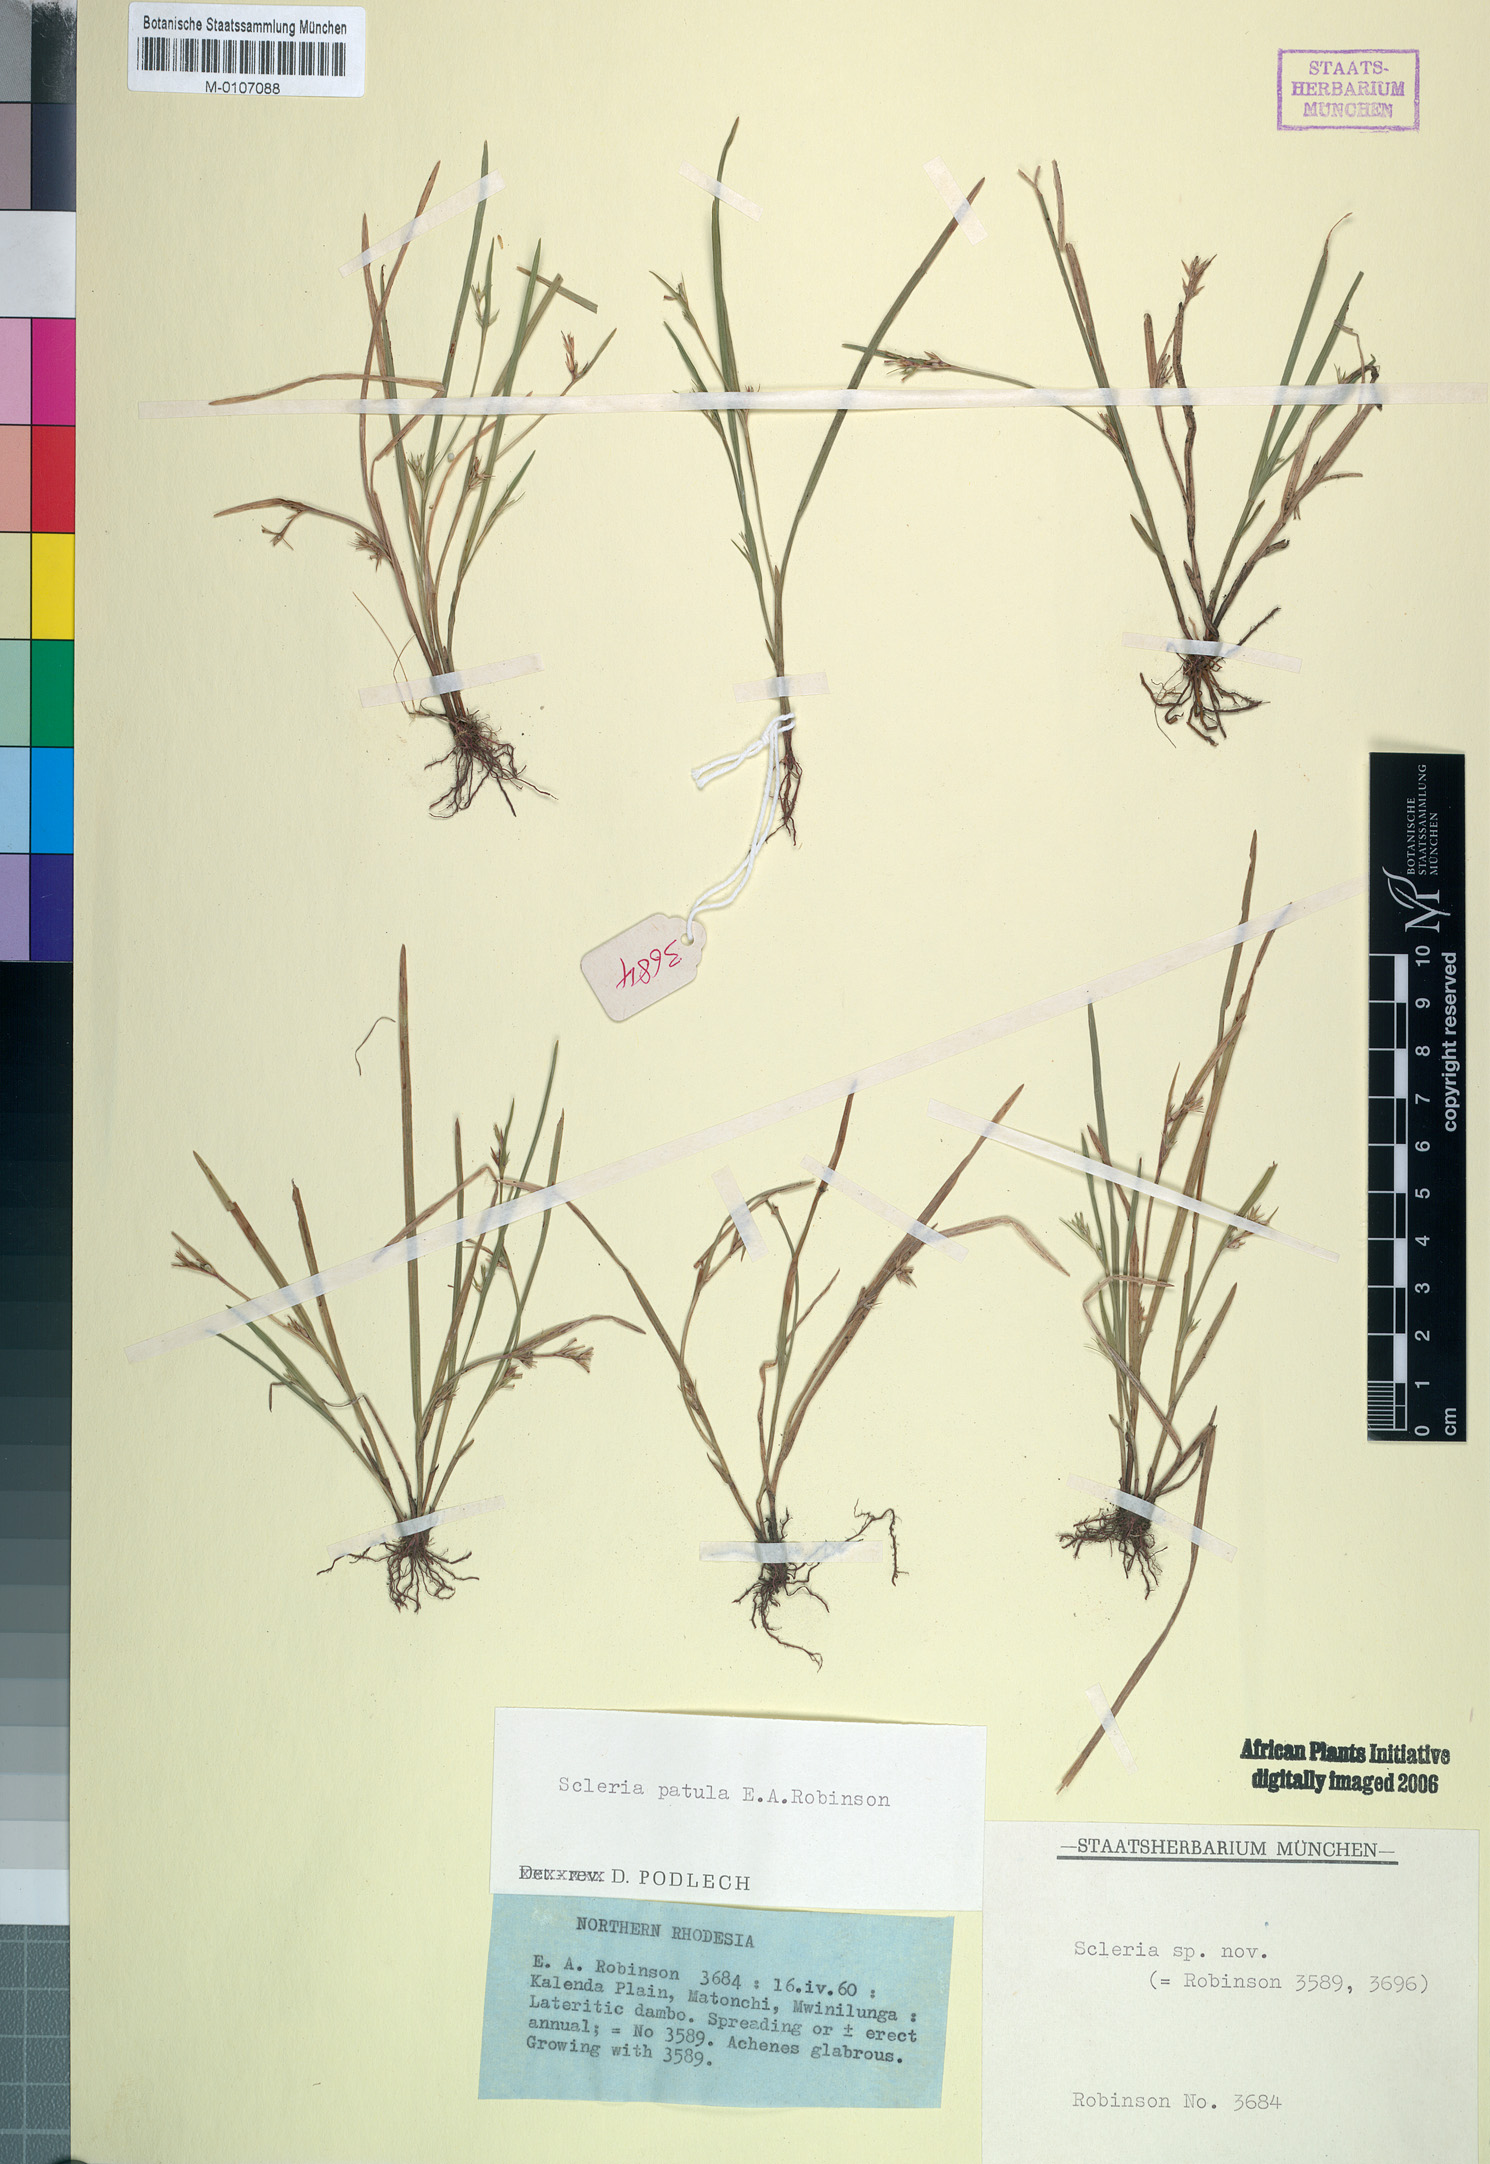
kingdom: Plantae
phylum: Tracheophyta
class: Liliopsida
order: Poales
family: Cyperaceae
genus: Scleria
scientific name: Scleria patula
